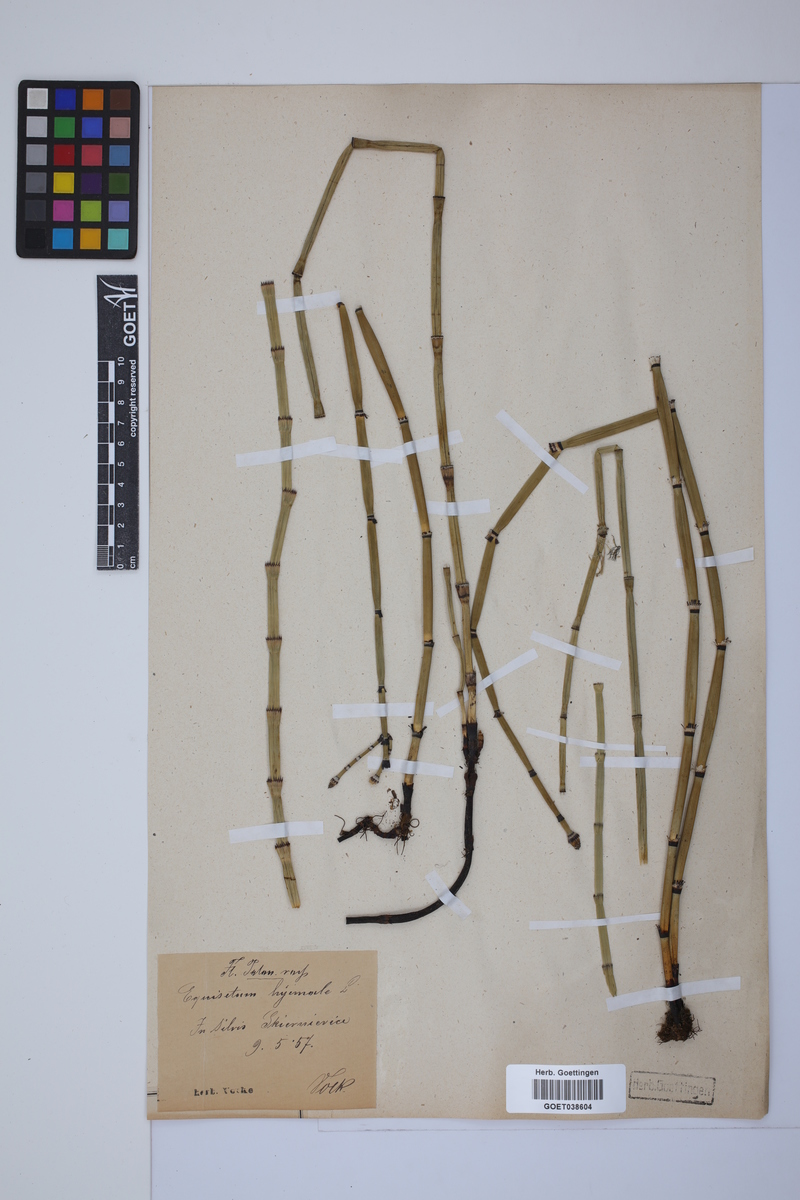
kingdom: Plantae
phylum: Tracheophyta
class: Polypodiopsida
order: Equisetales
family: Equisetaceae
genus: Equisetum
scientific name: Equisetum hyemale
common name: Rough horsetail
